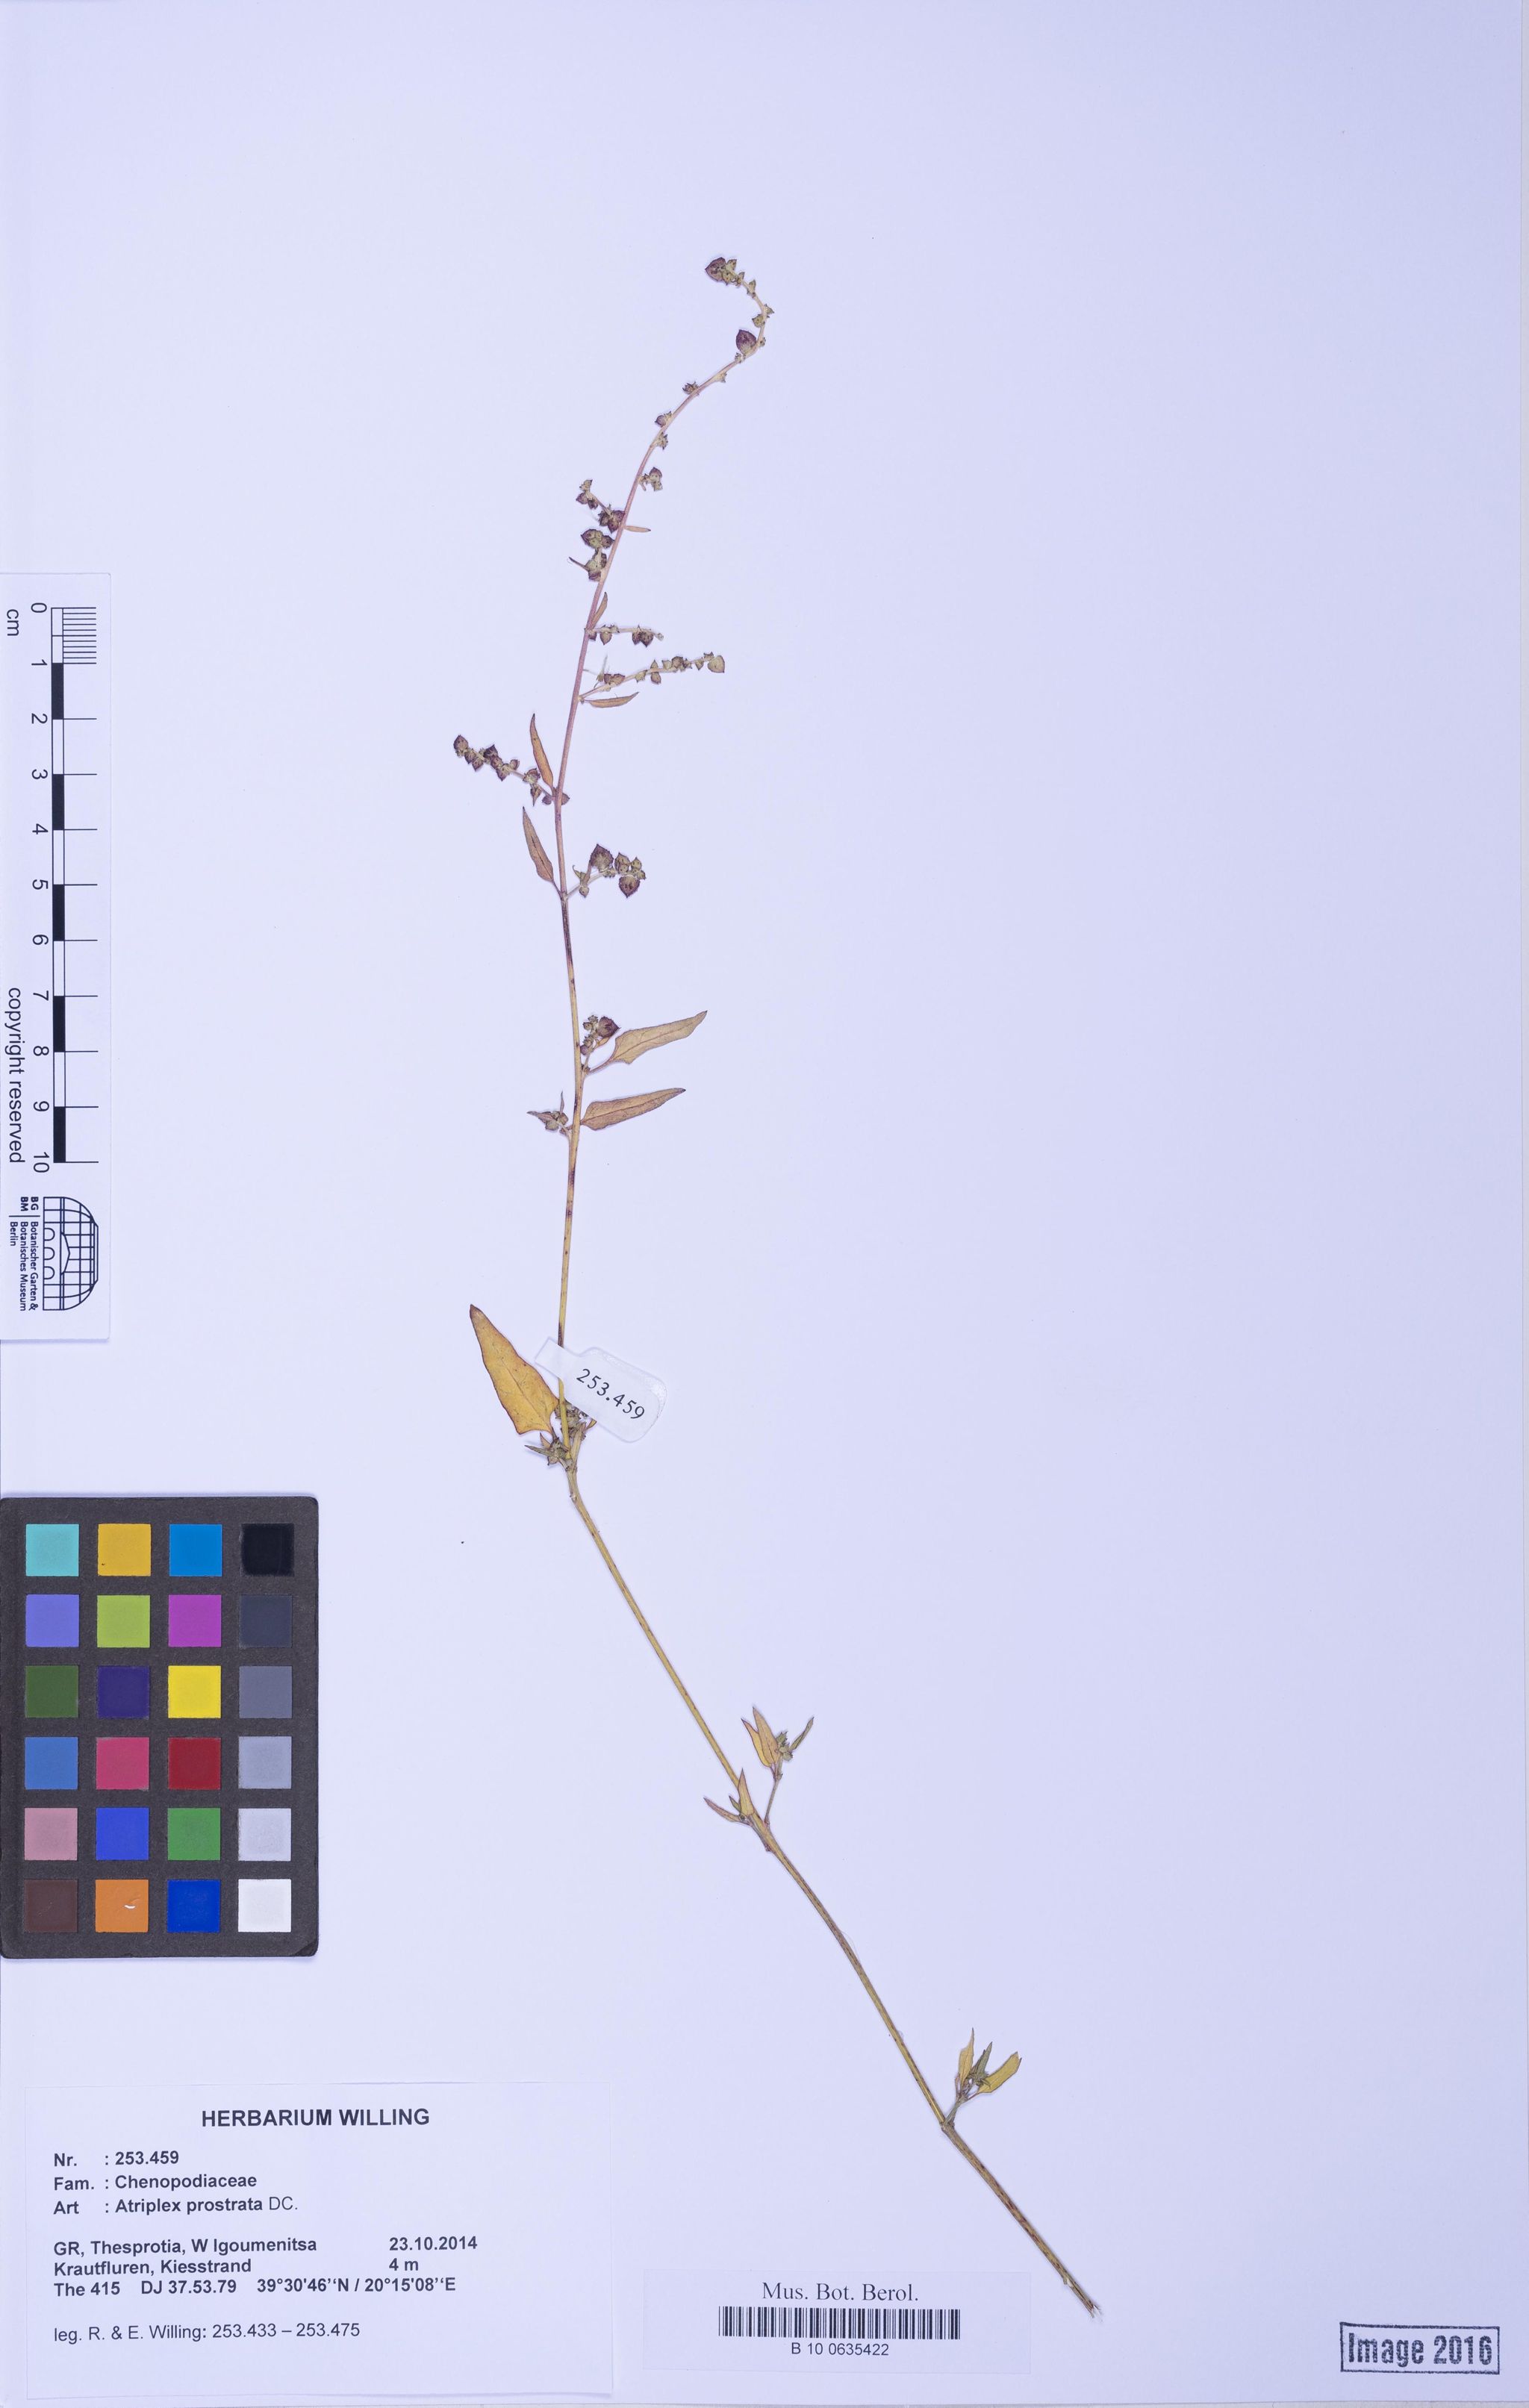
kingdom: Plantae
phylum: Tracheophyta
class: Magnoliopsida
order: Caryophyllales
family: Amaranthaceae
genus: Atriplex
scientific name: Atriplex prostrata
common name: Spear-leaved orache
